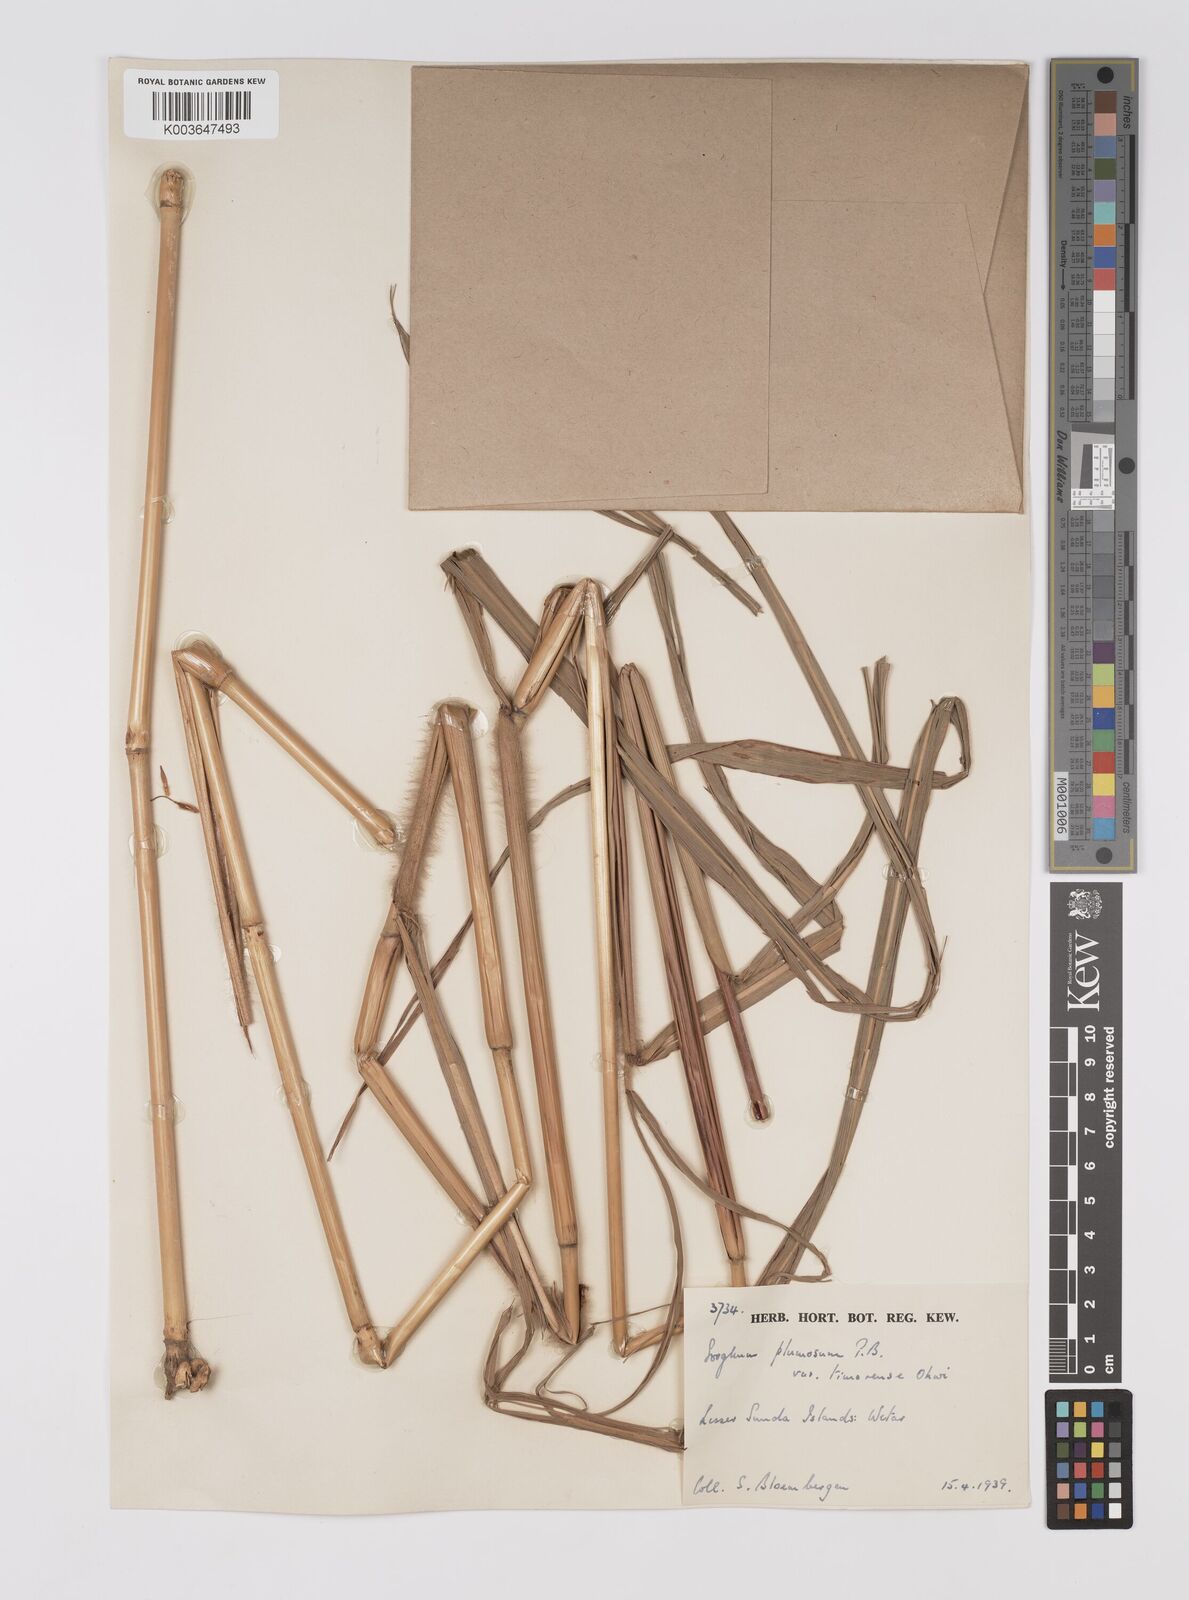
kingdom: Plantae
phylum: Tracheophyta
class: Liliopsida
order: Poales
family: Poaceae
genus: Sarga
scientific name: Sarga plumosa
